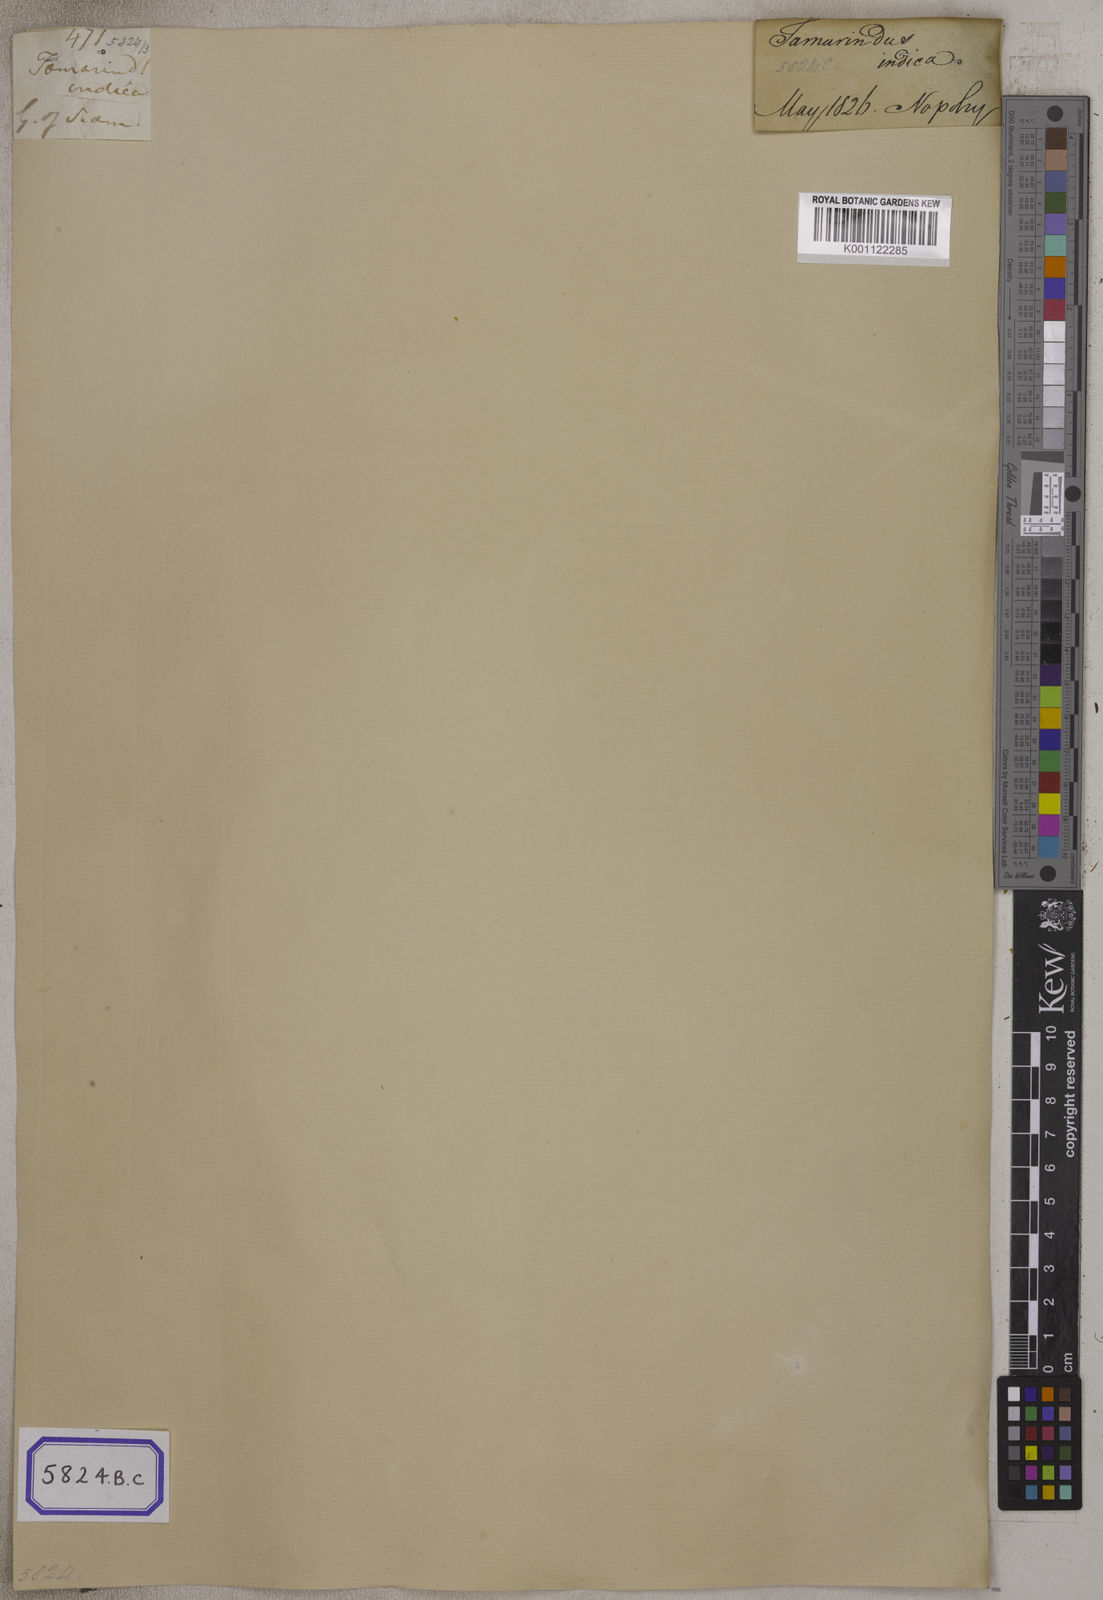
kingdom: Plantae
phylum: Tracheophyta
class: Magnoliopsida
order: Fabales
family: Fabaceae
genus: Tamarindus
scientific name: Tamarindus indica
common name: Tamarind
